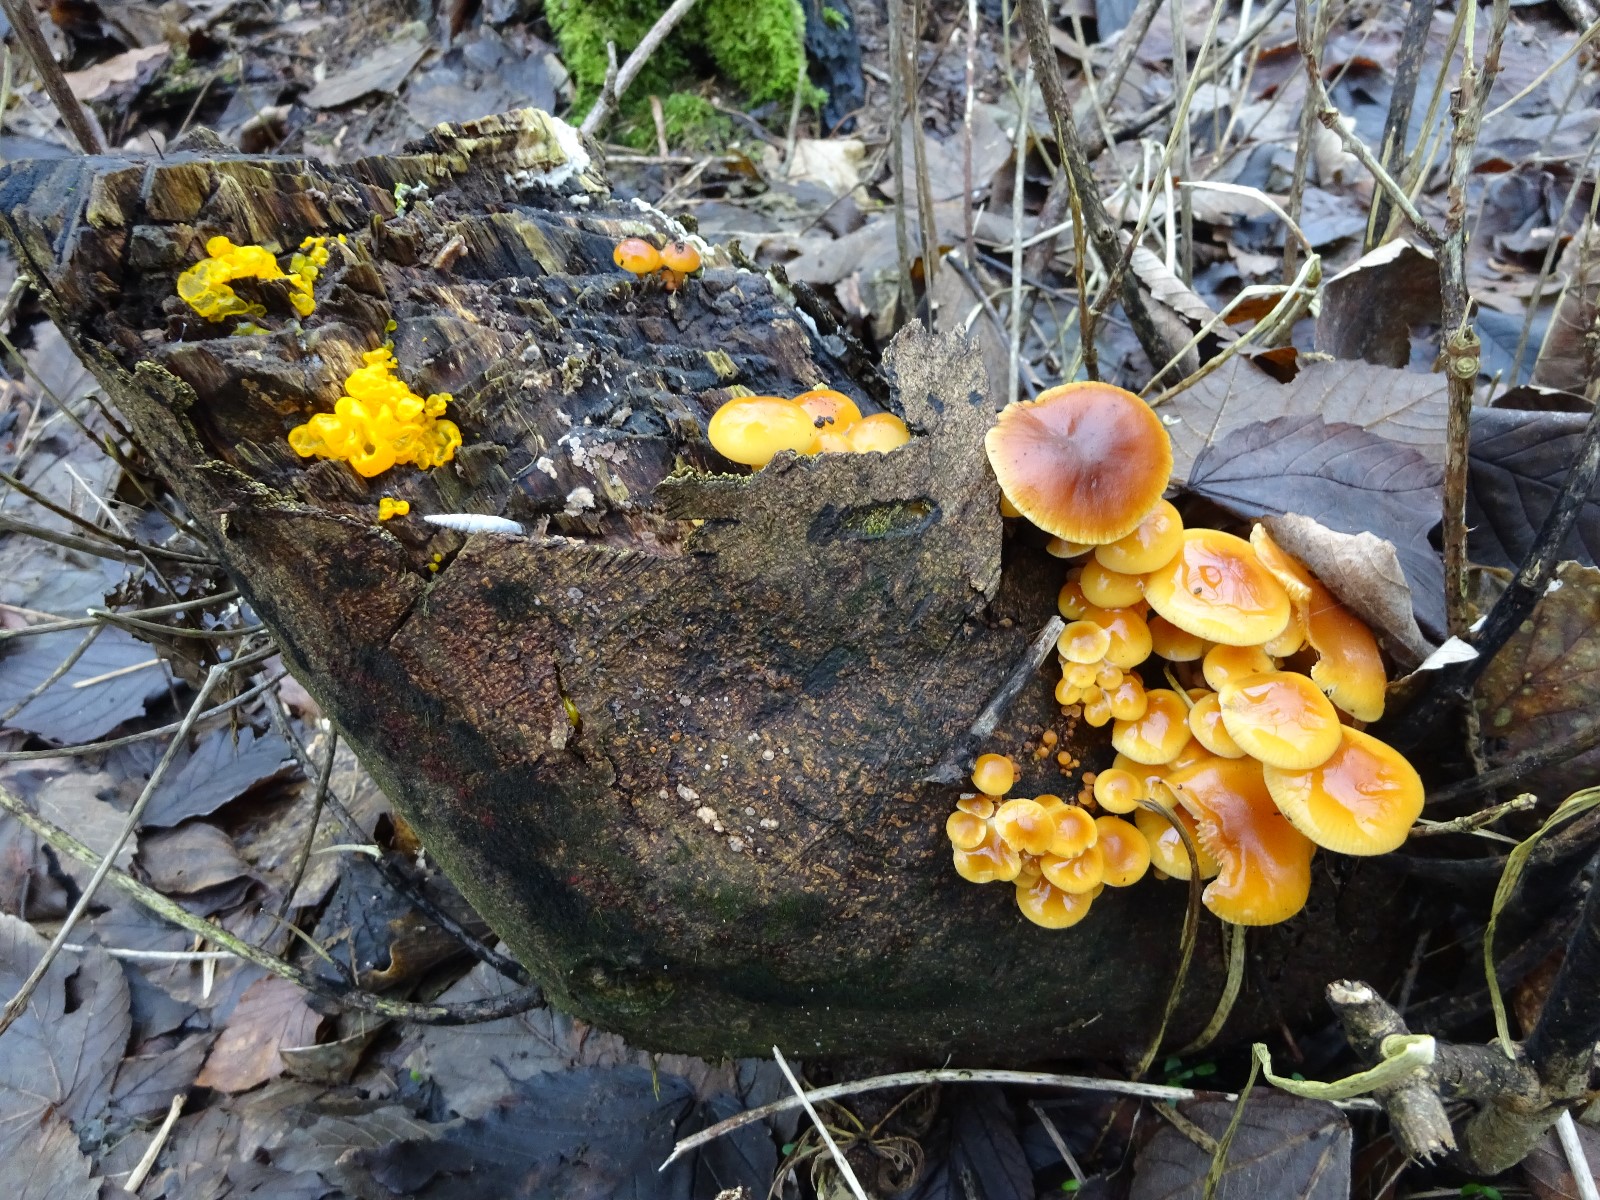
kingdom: Fungi
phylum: Basidiomycota
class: Agaricomycetes
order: Agaricales
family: Physalacriaceae
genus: Flammulina
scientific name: Flammulina
